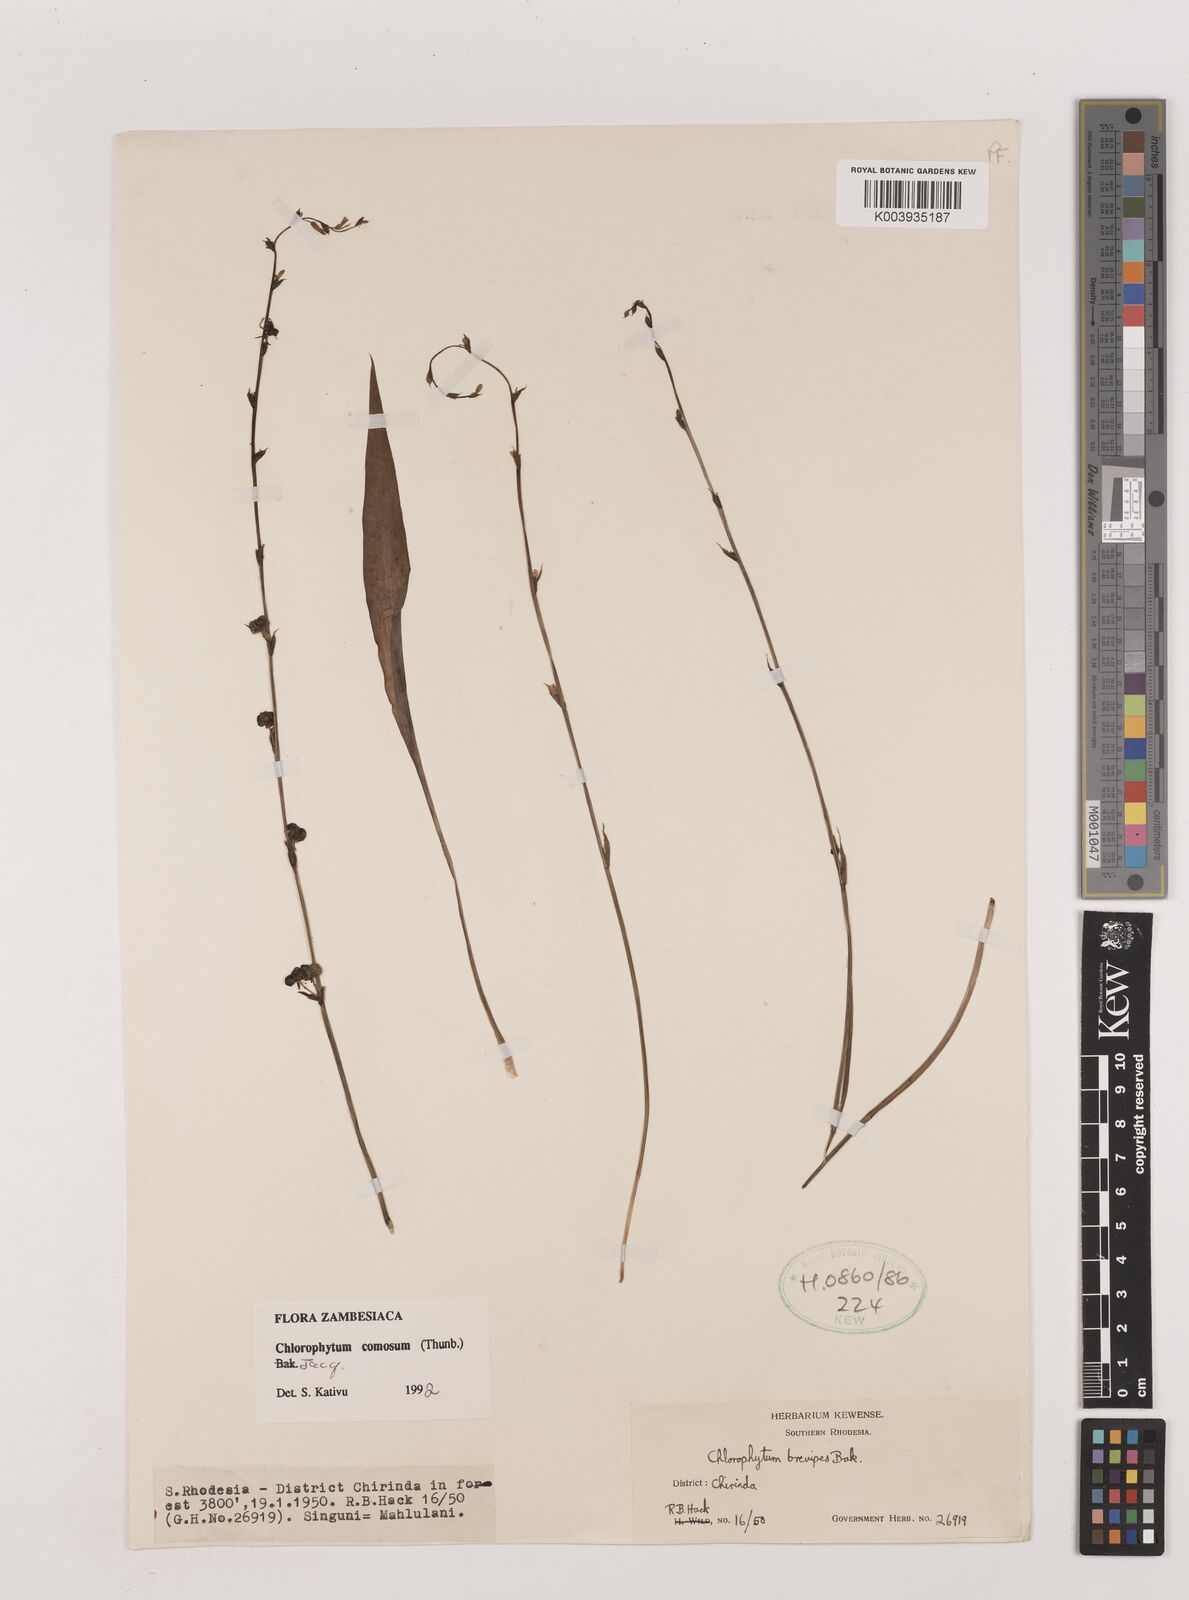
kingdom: Plantae
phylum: Tracheophyta
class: Liliopsida
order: Asparagales
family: Asparagaceae
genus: Chlorophytum
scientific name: Chlorophytum comosum
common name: Spider plant
